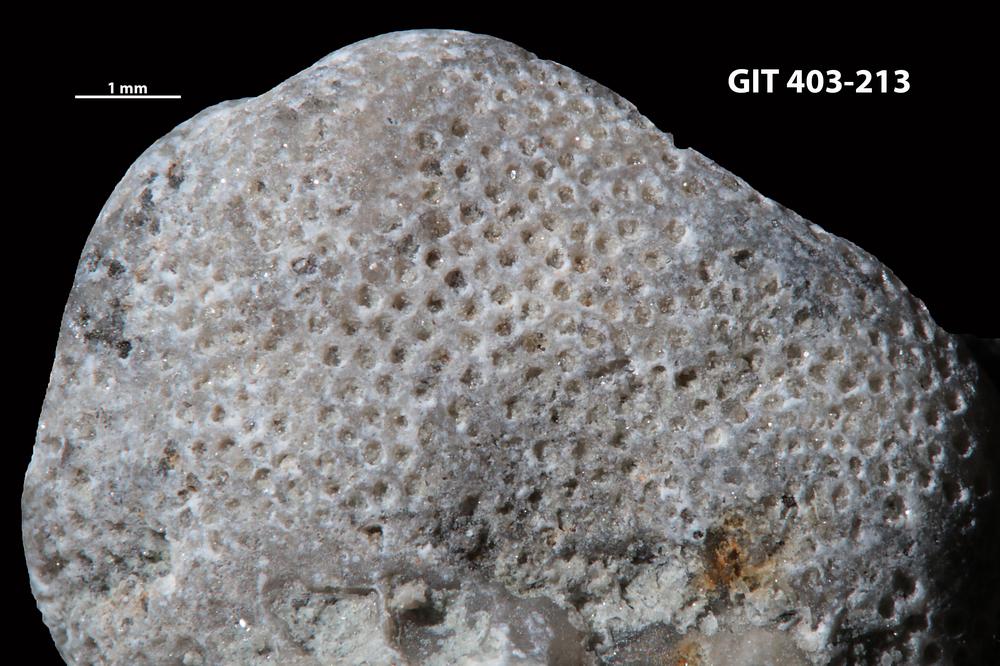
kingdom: Animalia
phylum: Bryozoa
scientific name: Bryozoa
